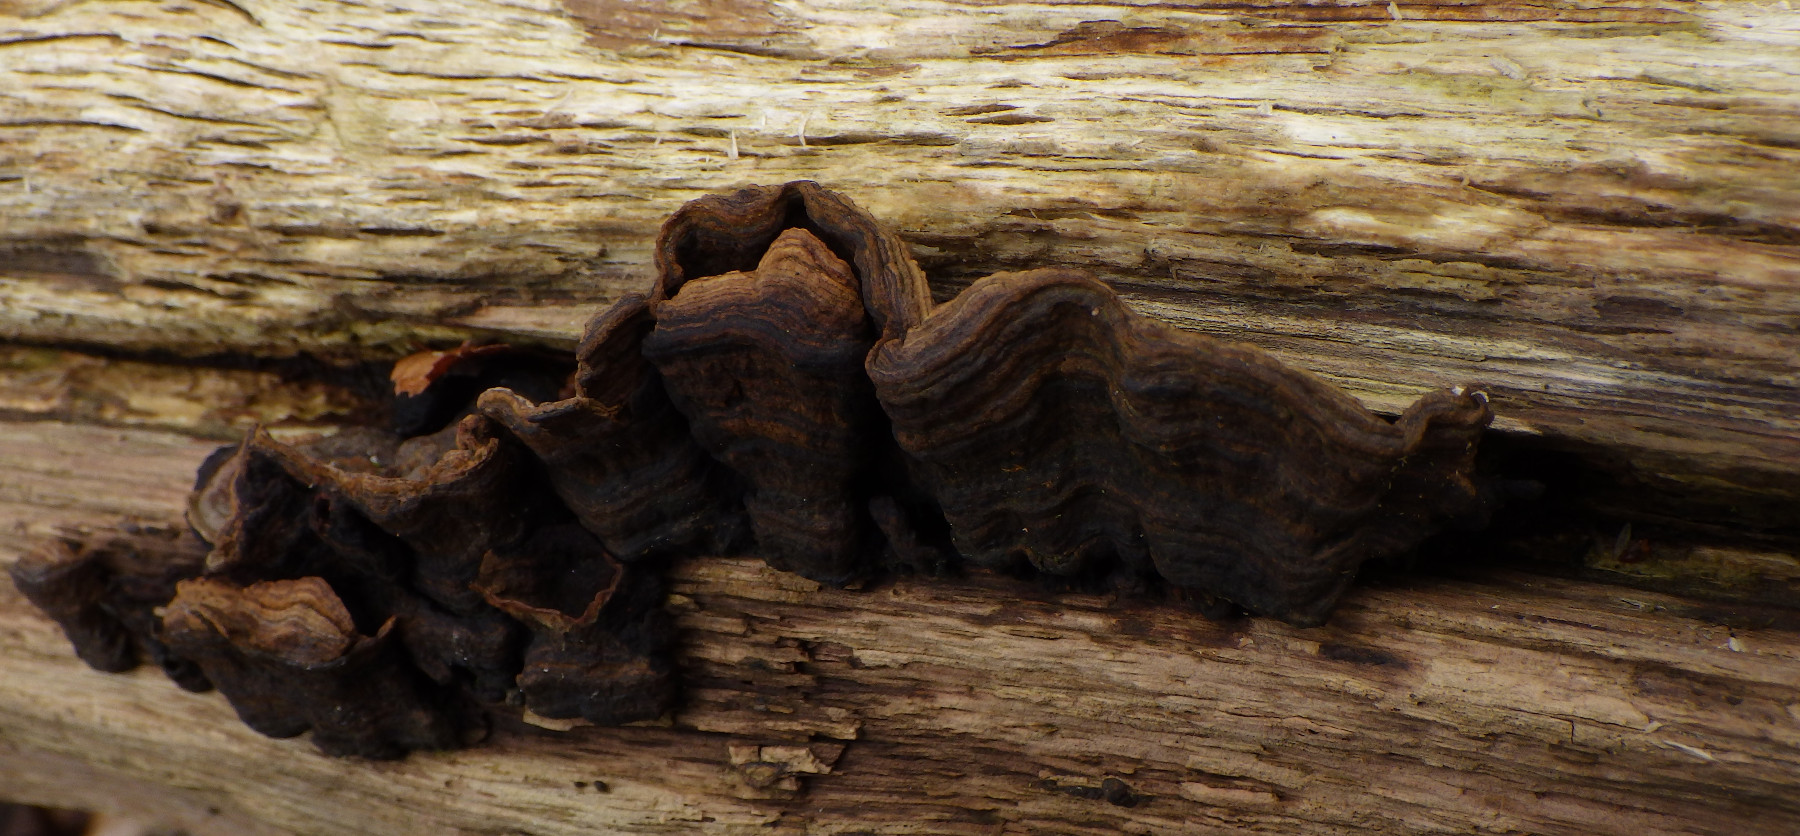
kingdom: Fungi
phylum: Basidiomycota
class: Agaricomycetes
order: Hymenochaetales
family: Hymenochaetaceae
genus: Hymenochaete
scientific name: Hymenochaete rubiginosa
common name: stiv ruslædersvamp
